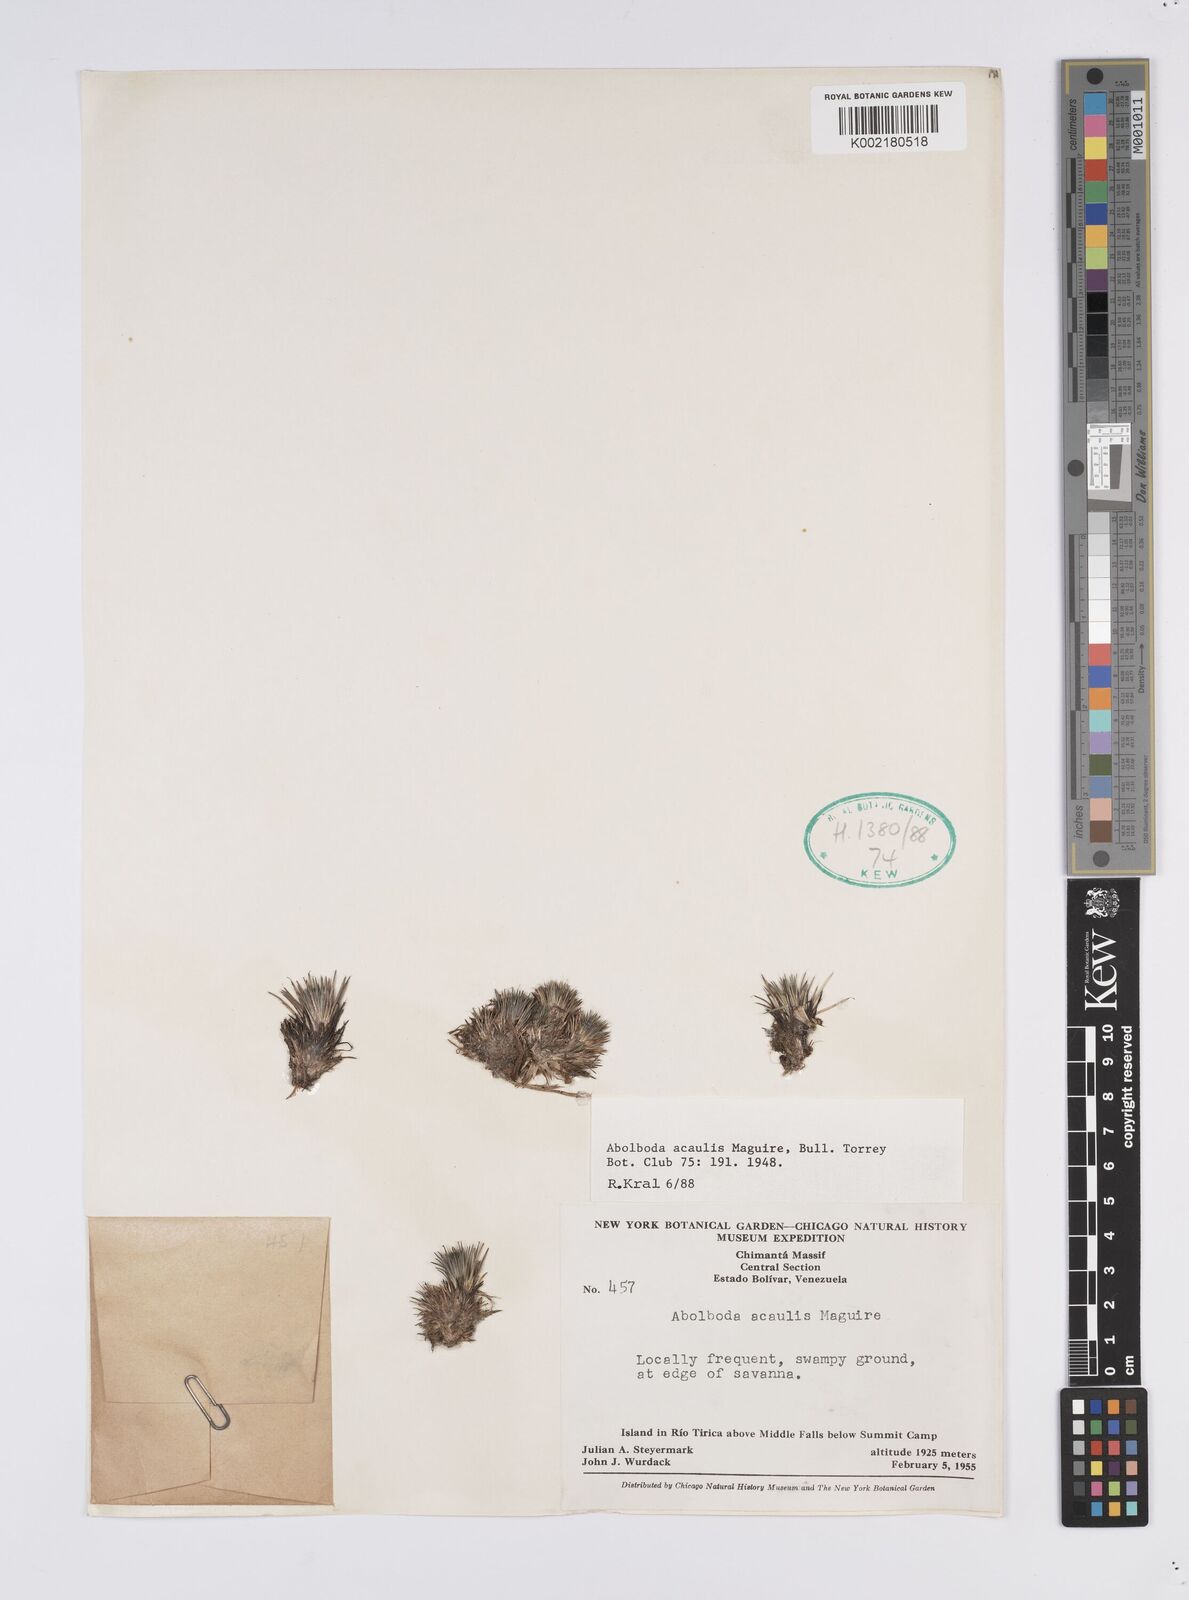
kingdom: Plantae
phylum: Tracheophyta
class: Liliopsida
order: Poales
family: Xyridaceae
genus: Abolboda
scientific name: Abolboda acaulis
